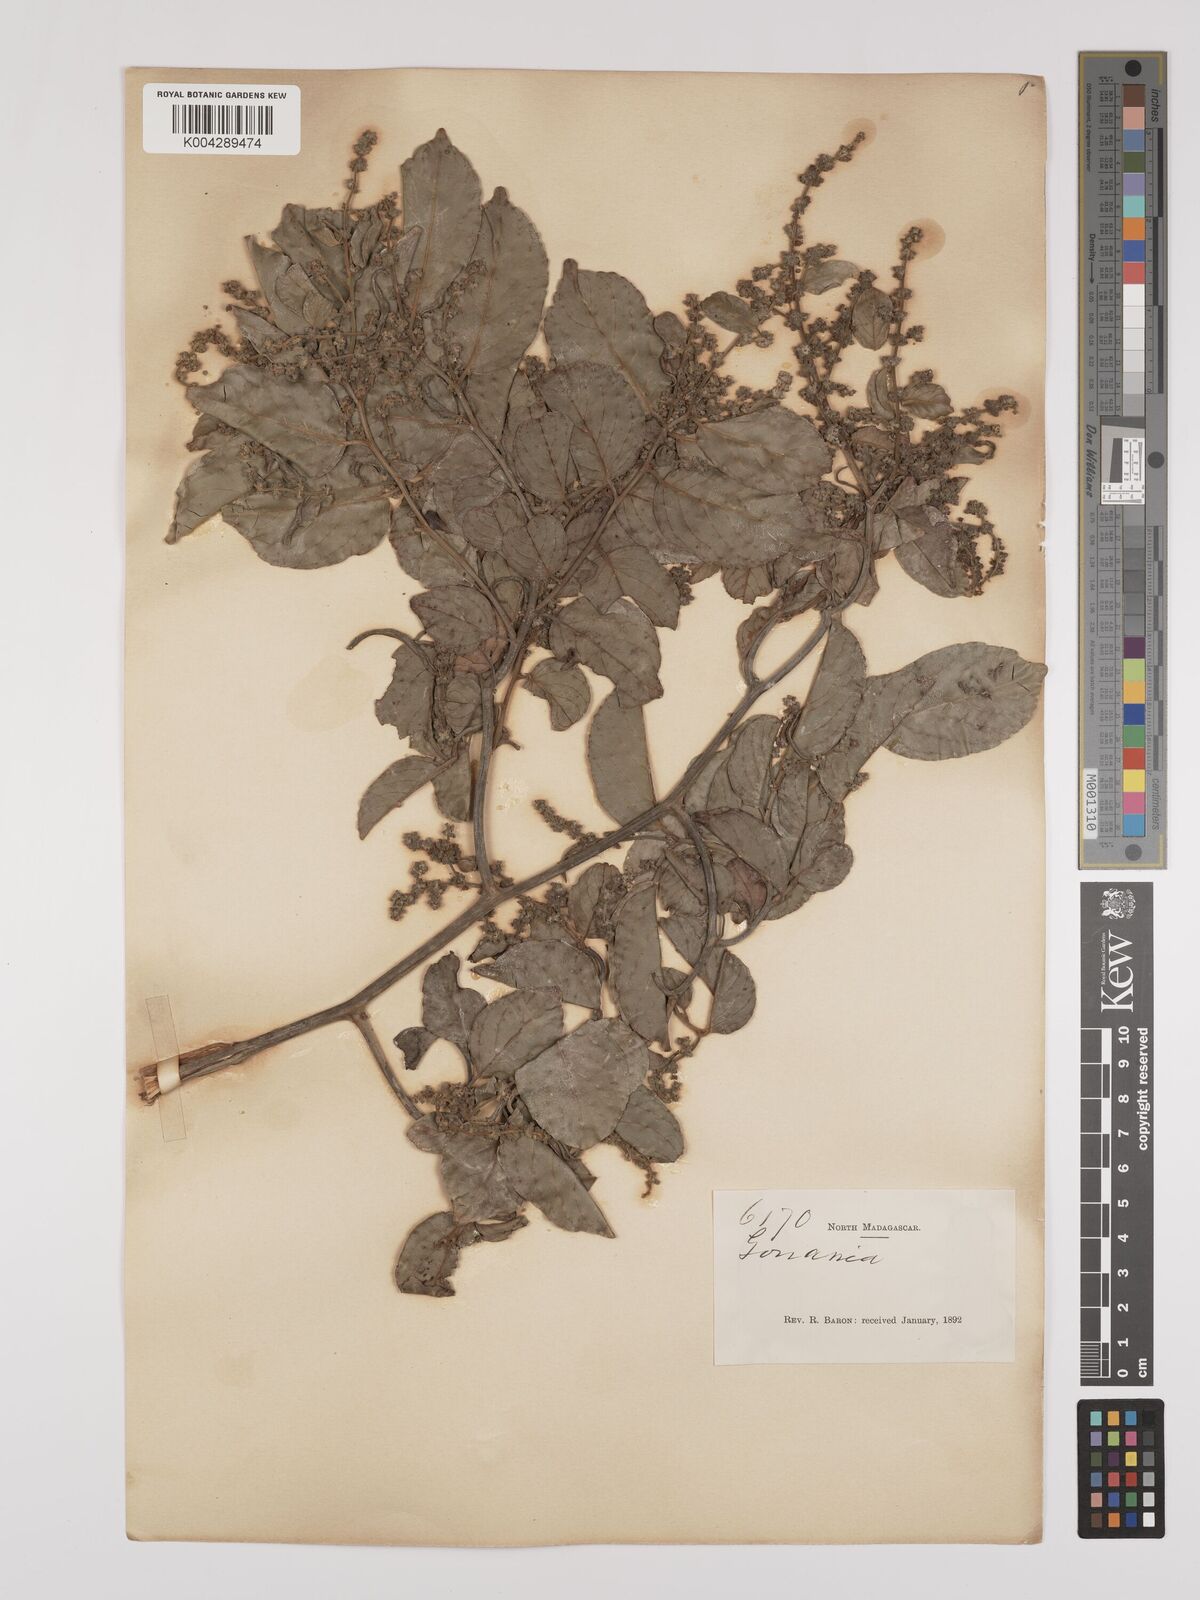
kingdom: Plantae
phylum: Tracheophyta
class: Magnoliopsida
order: Rosales
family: Rhamnaceae
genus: Ventilago
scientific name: Ventilago leptadenia
